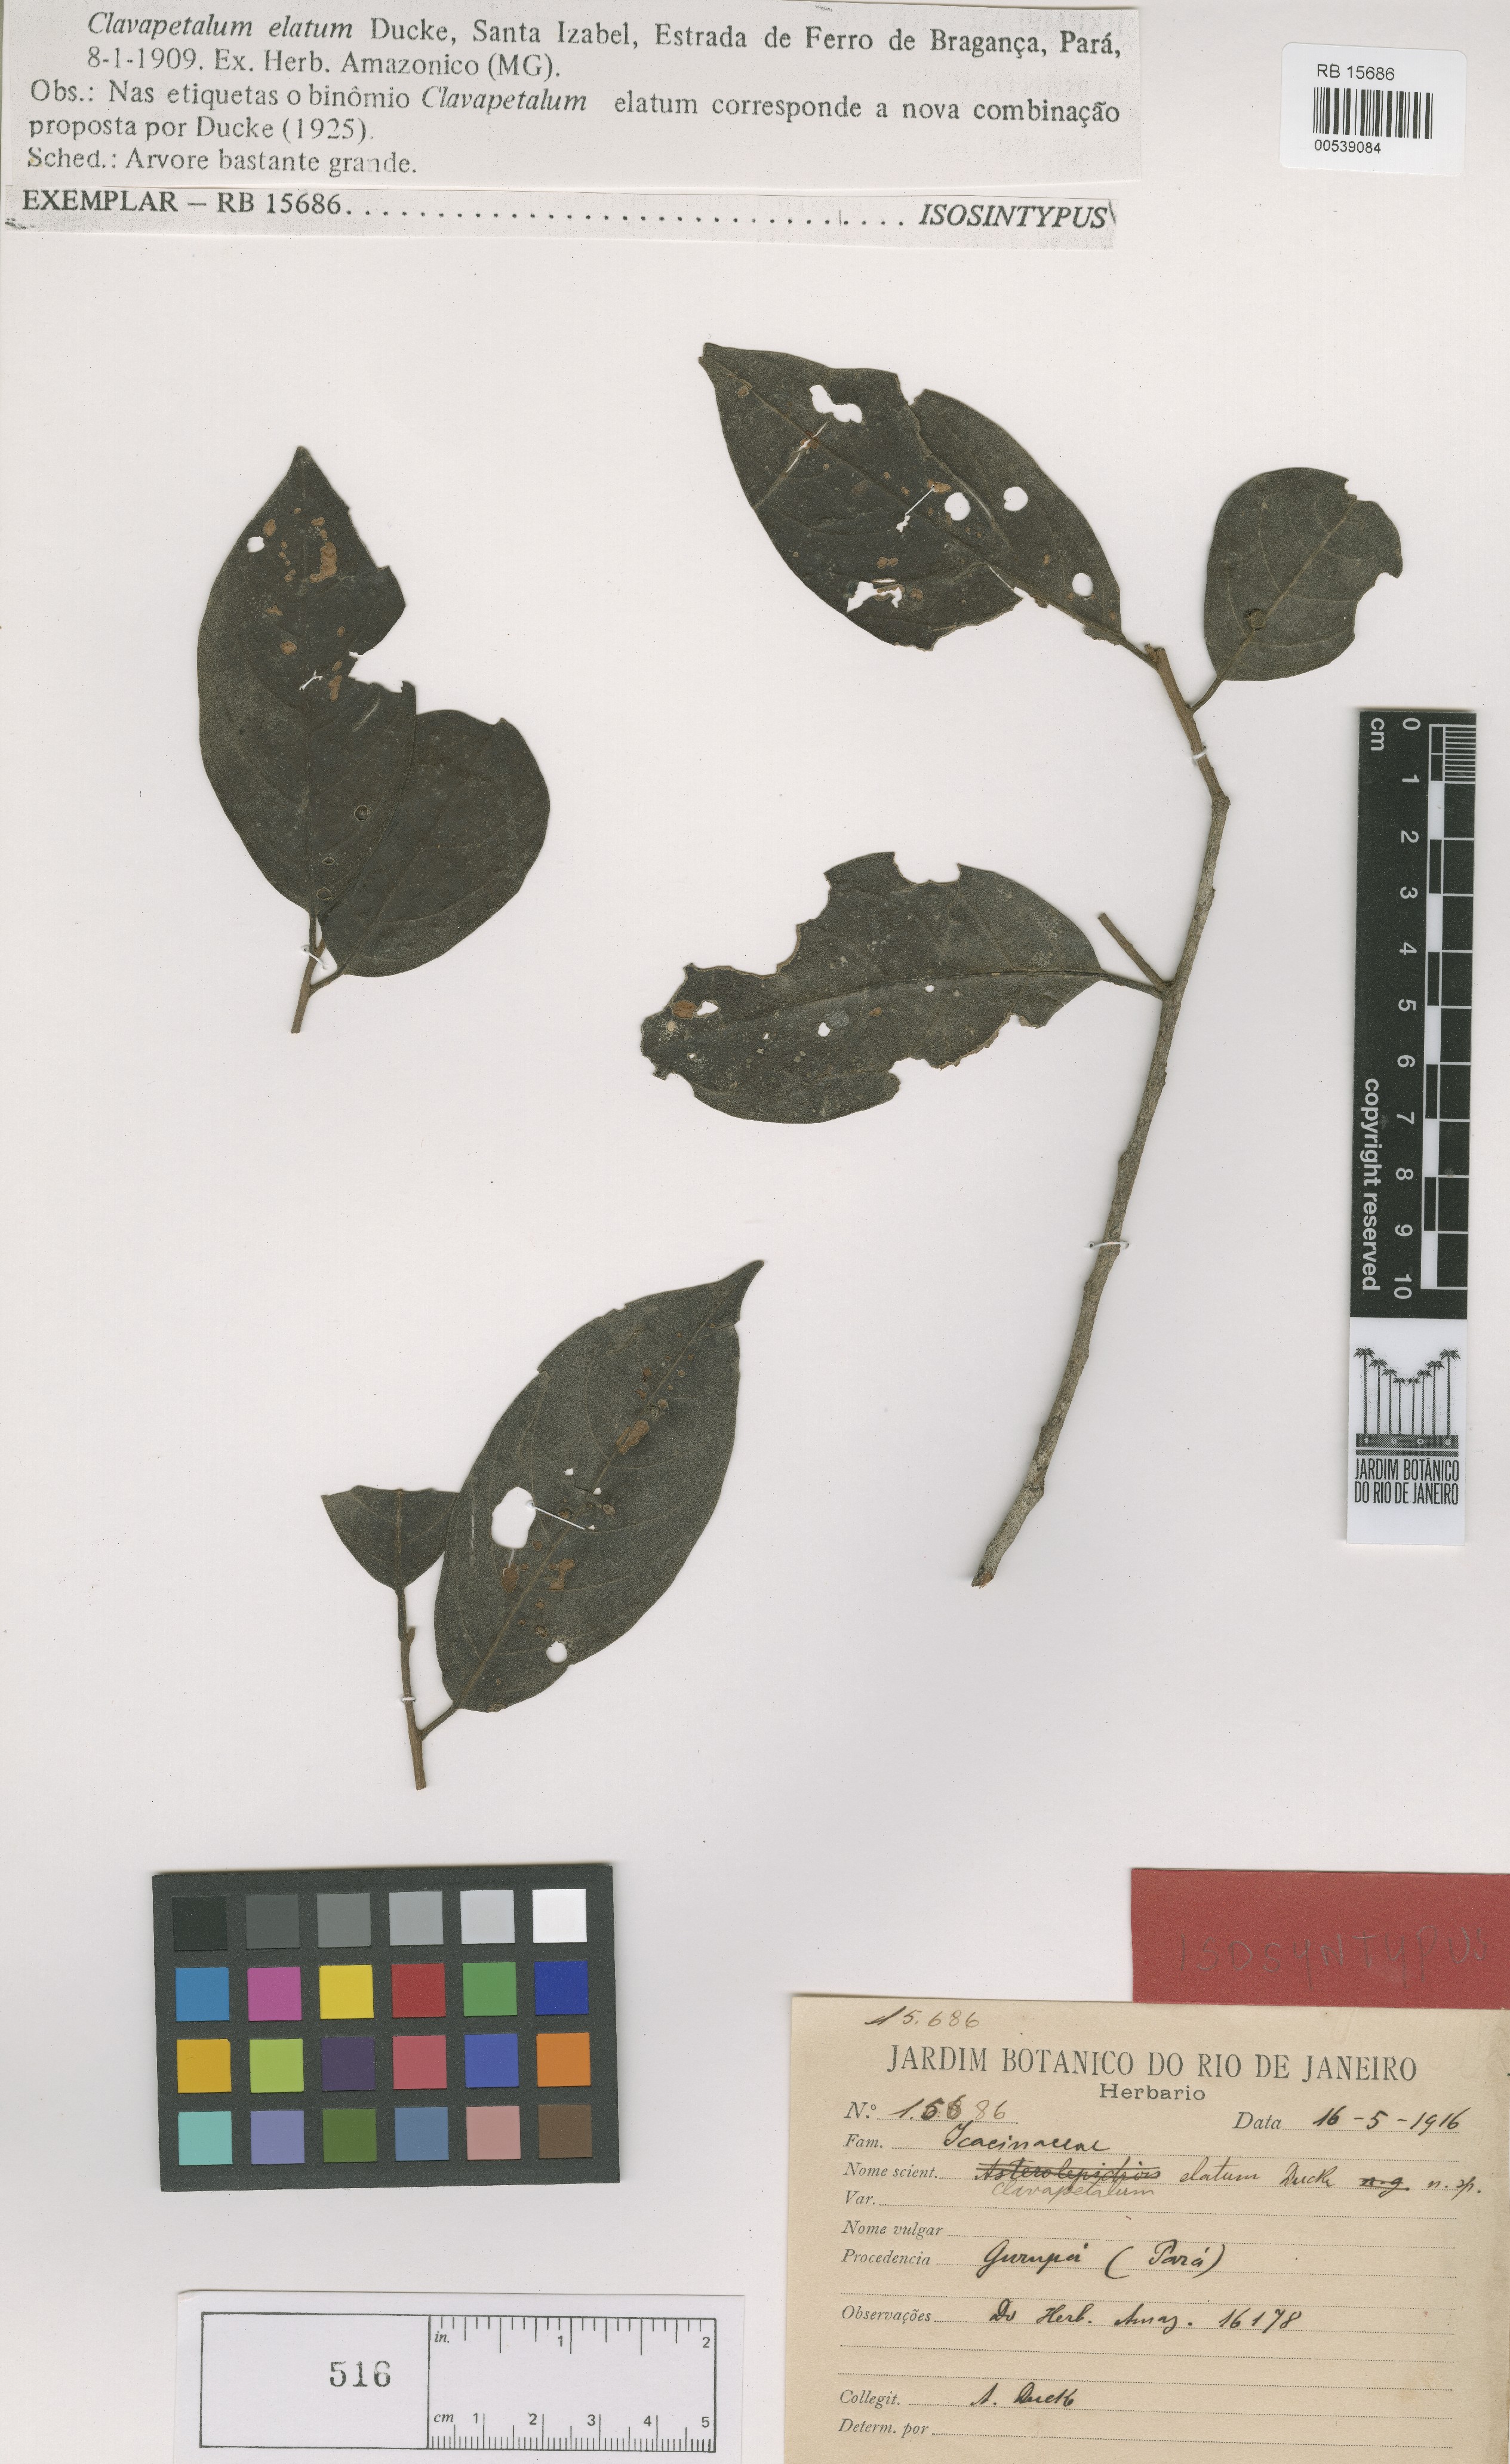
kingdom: Plantae
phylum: Tracheophyta
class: Magnoliopsida
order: Metteniusales
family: Metteniusaceae
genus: Dendrobangia
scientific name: Dendrobangia boliviana
